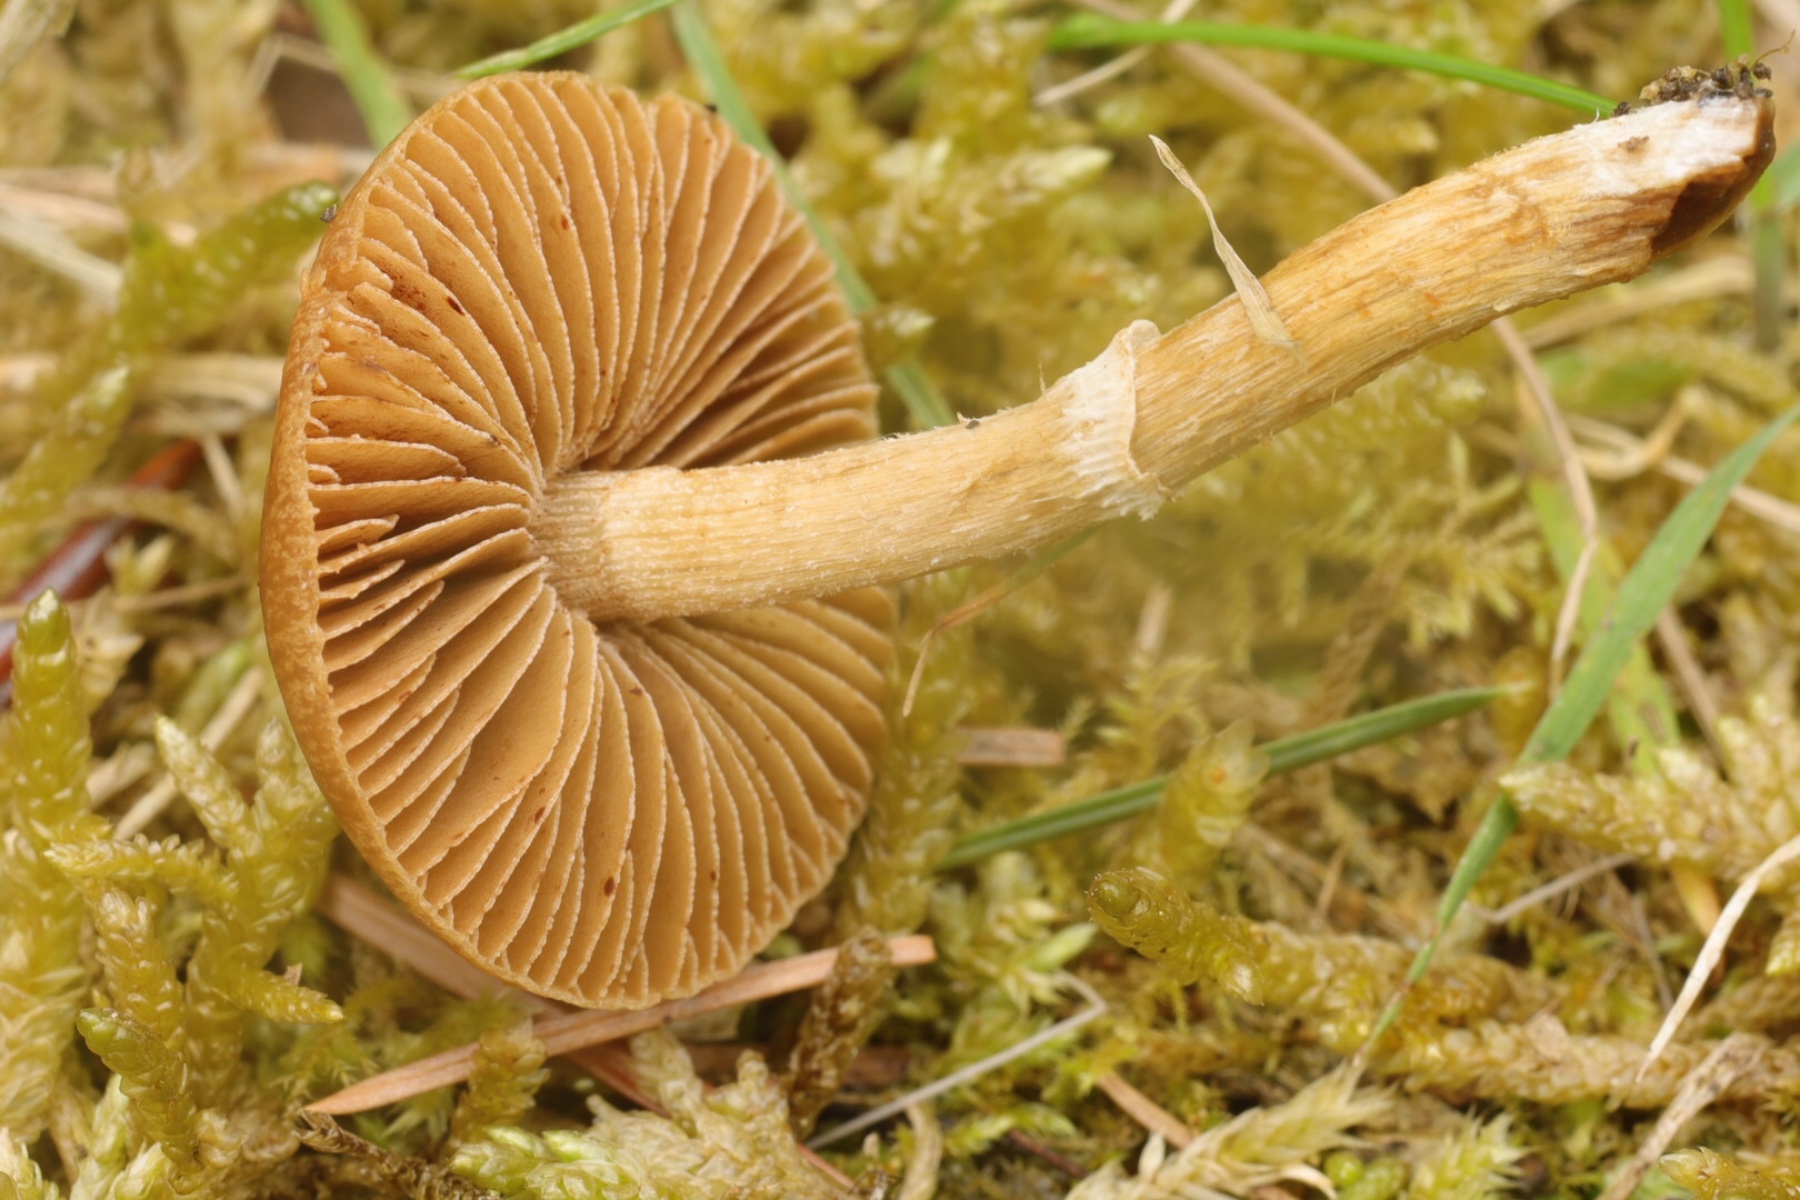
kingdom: Fungi
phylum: Basidiomycota
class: Agaricomycetes
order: Agaricales
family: Bolbitiaceae
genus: Conocybe
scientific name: Conocybe aporos
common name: tidlig dansehat
